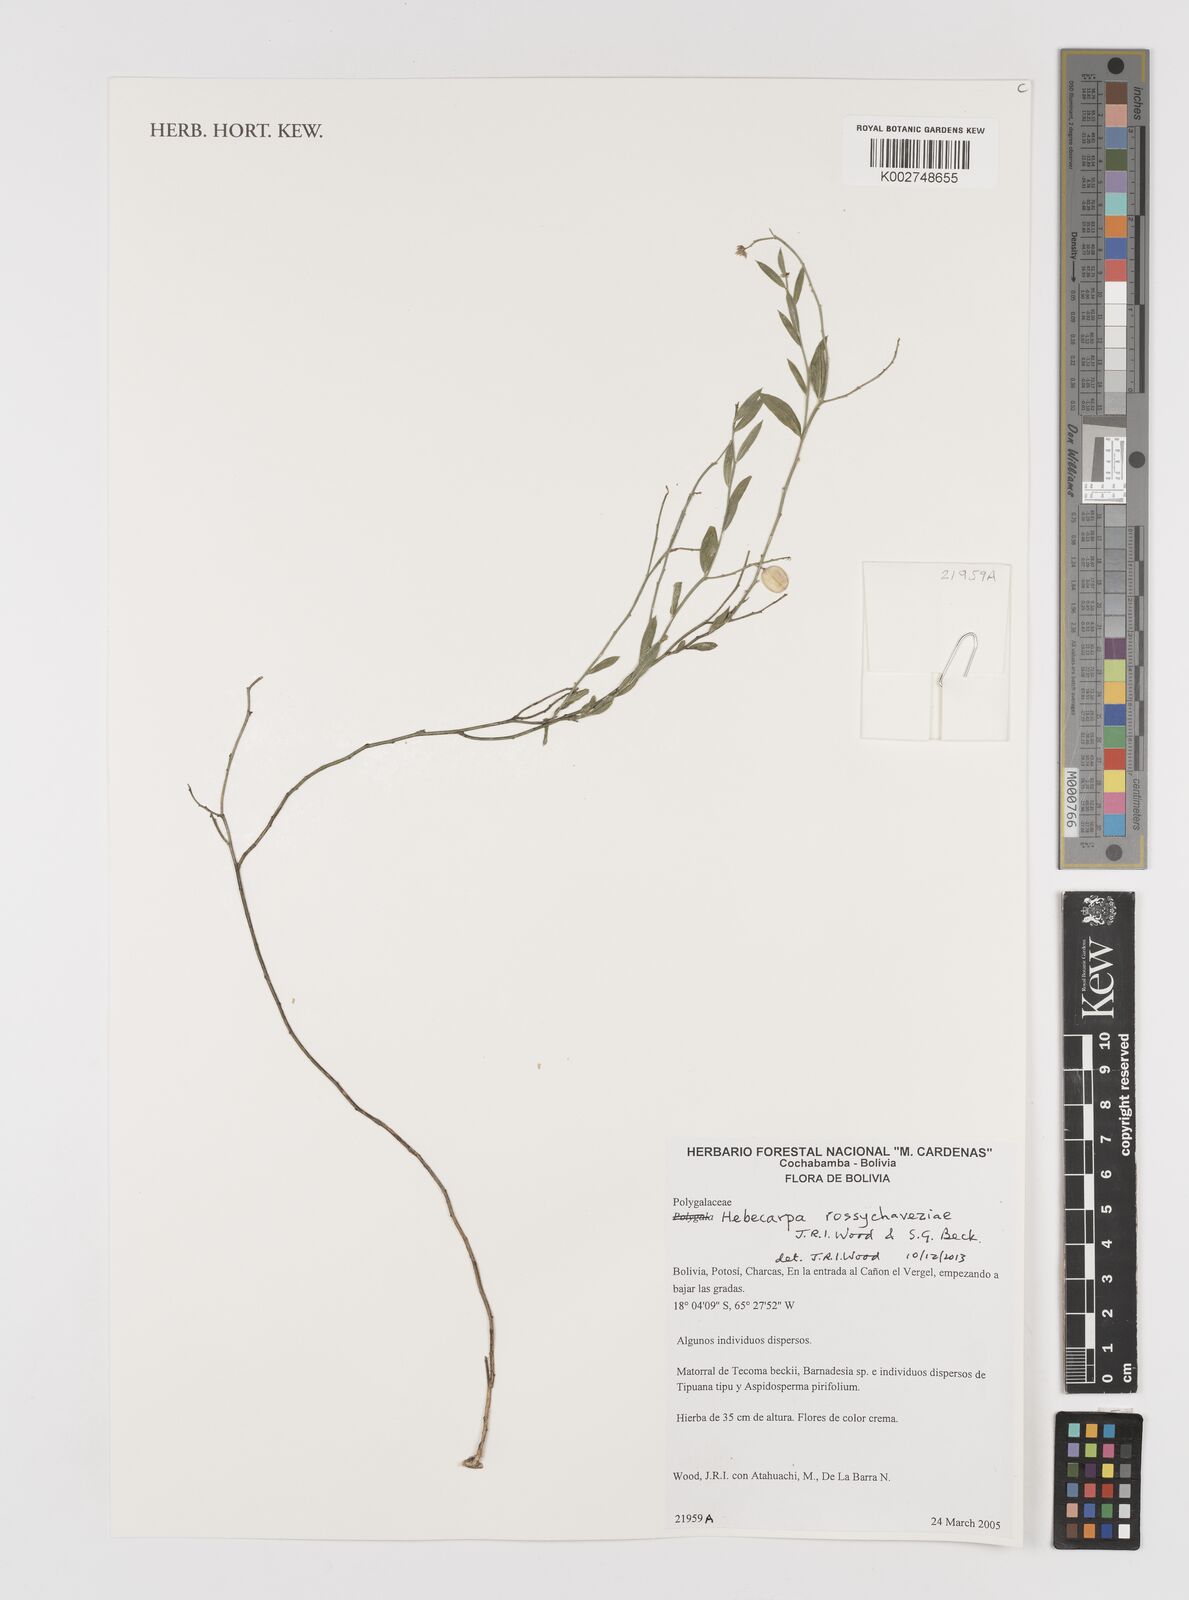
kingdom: Plantae
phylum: Tracheophyta
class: Magnoliopsida
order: Fabales
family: Polygalaceae
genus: Hebecarpa
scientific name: Hebecarpa rossychaveziae
